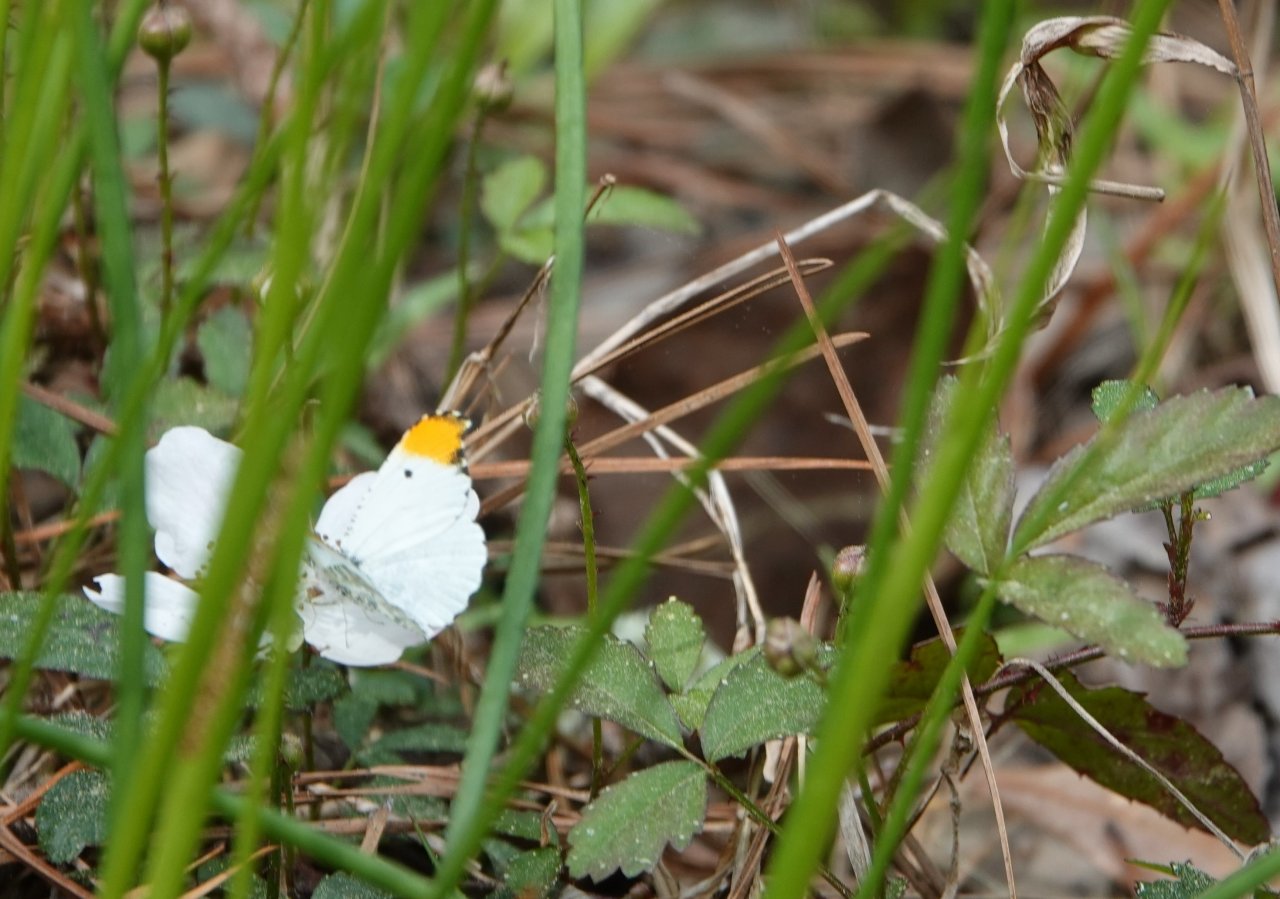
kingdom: Animalia
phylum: Arthropoda
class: Insecta
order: Lepidoptera
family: Pieridae
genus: Anthocharis
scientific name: Anthocharis midea
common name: Falcate Orangetip
